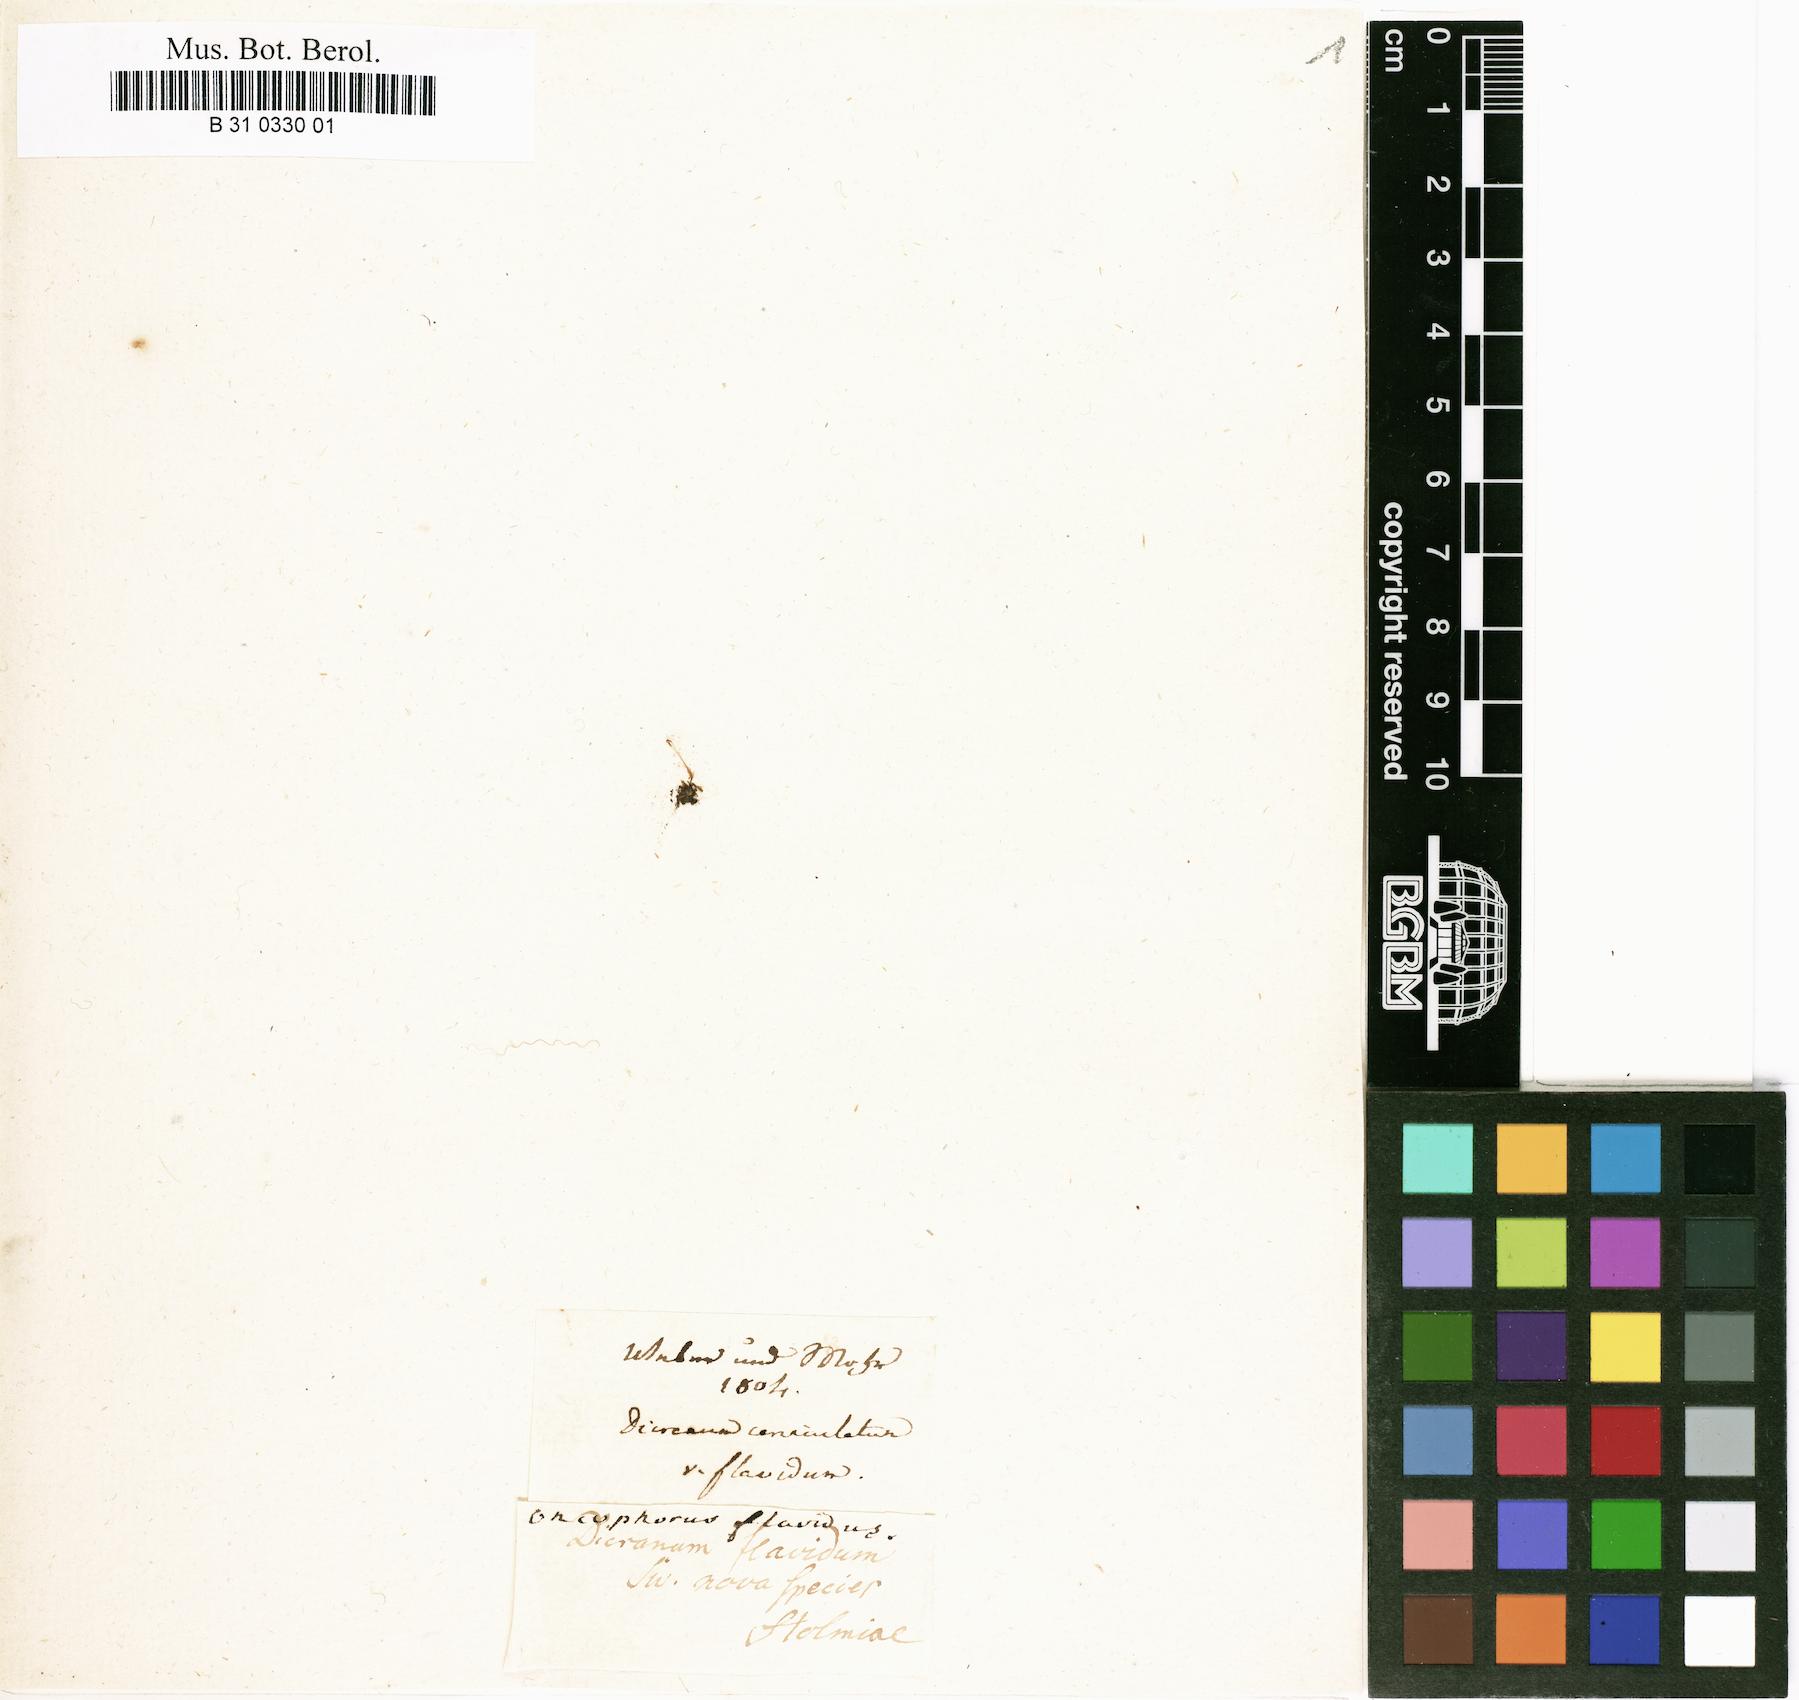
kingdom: Plantae
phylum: Bryophyta
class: Bryopsida
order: Dicranales
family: Dicranellaceae
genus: Dicranella
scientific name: Dicranella cerviculata
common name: Spur-necked forklet moss
